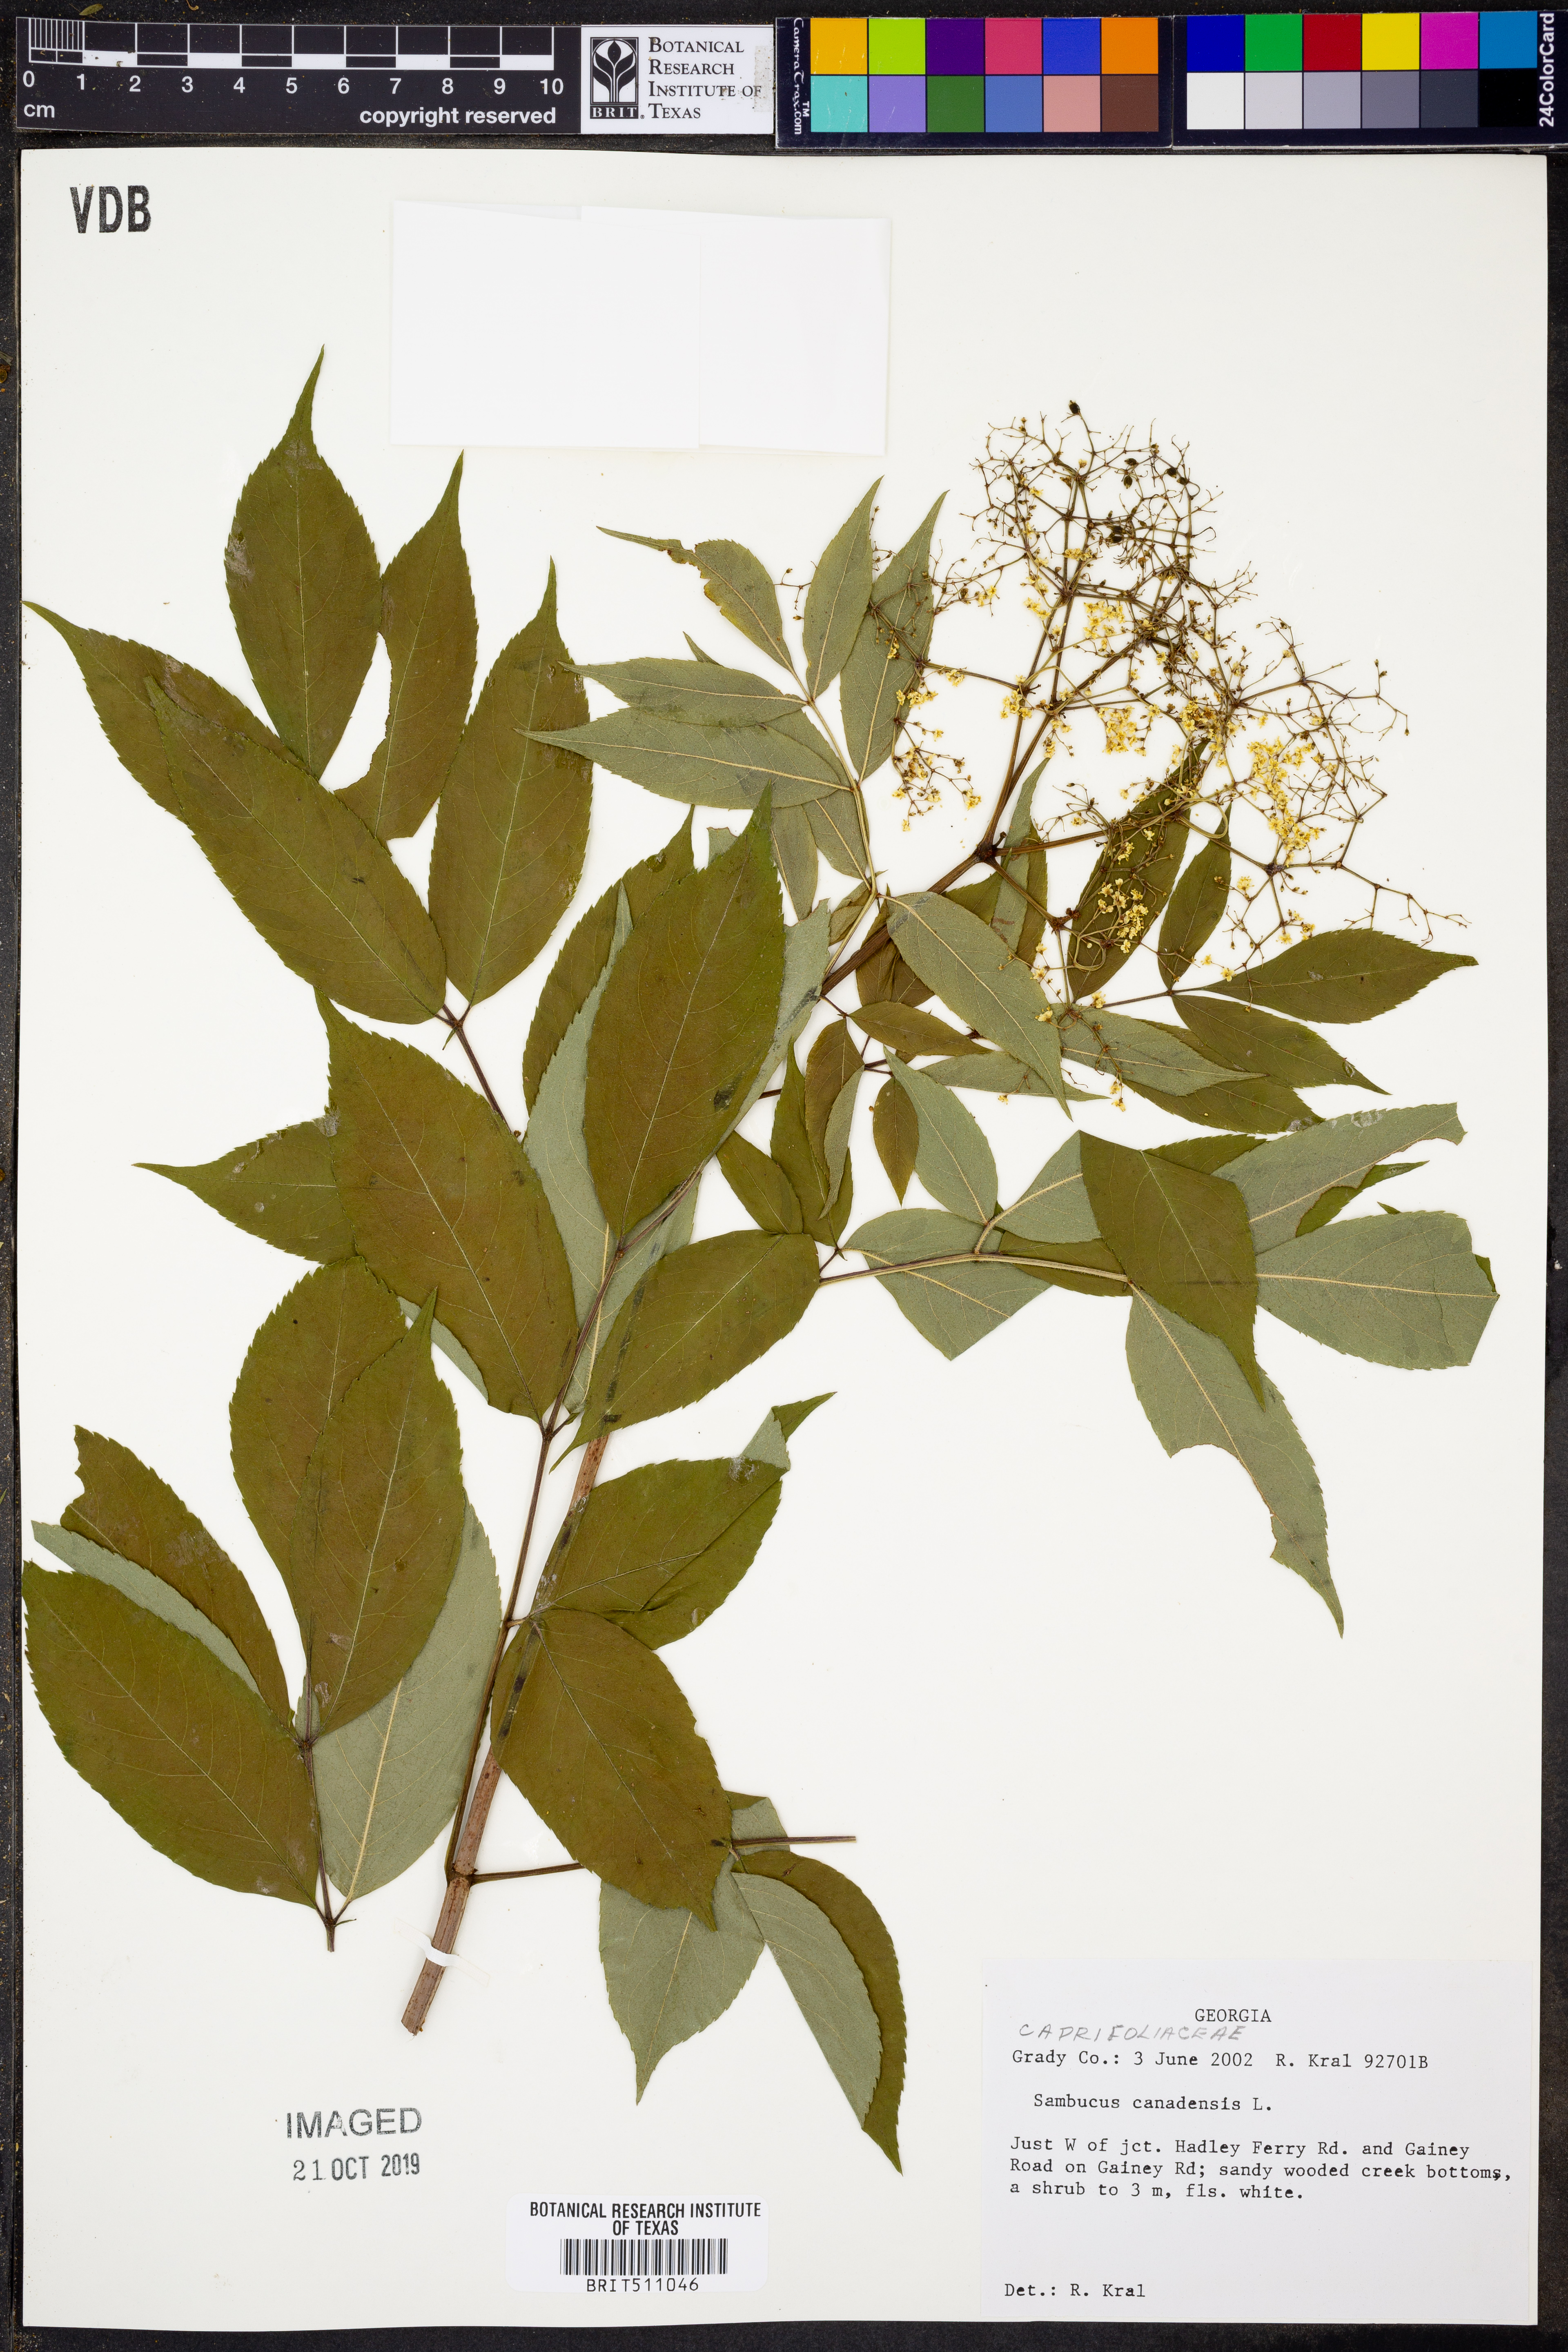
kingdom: Plantae
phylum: Tracheophyta
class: Magnoliopsida
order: Dipsacales
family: Viburnaceae
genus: Sambucus
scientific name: Sambucus canadensis
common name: American elder
